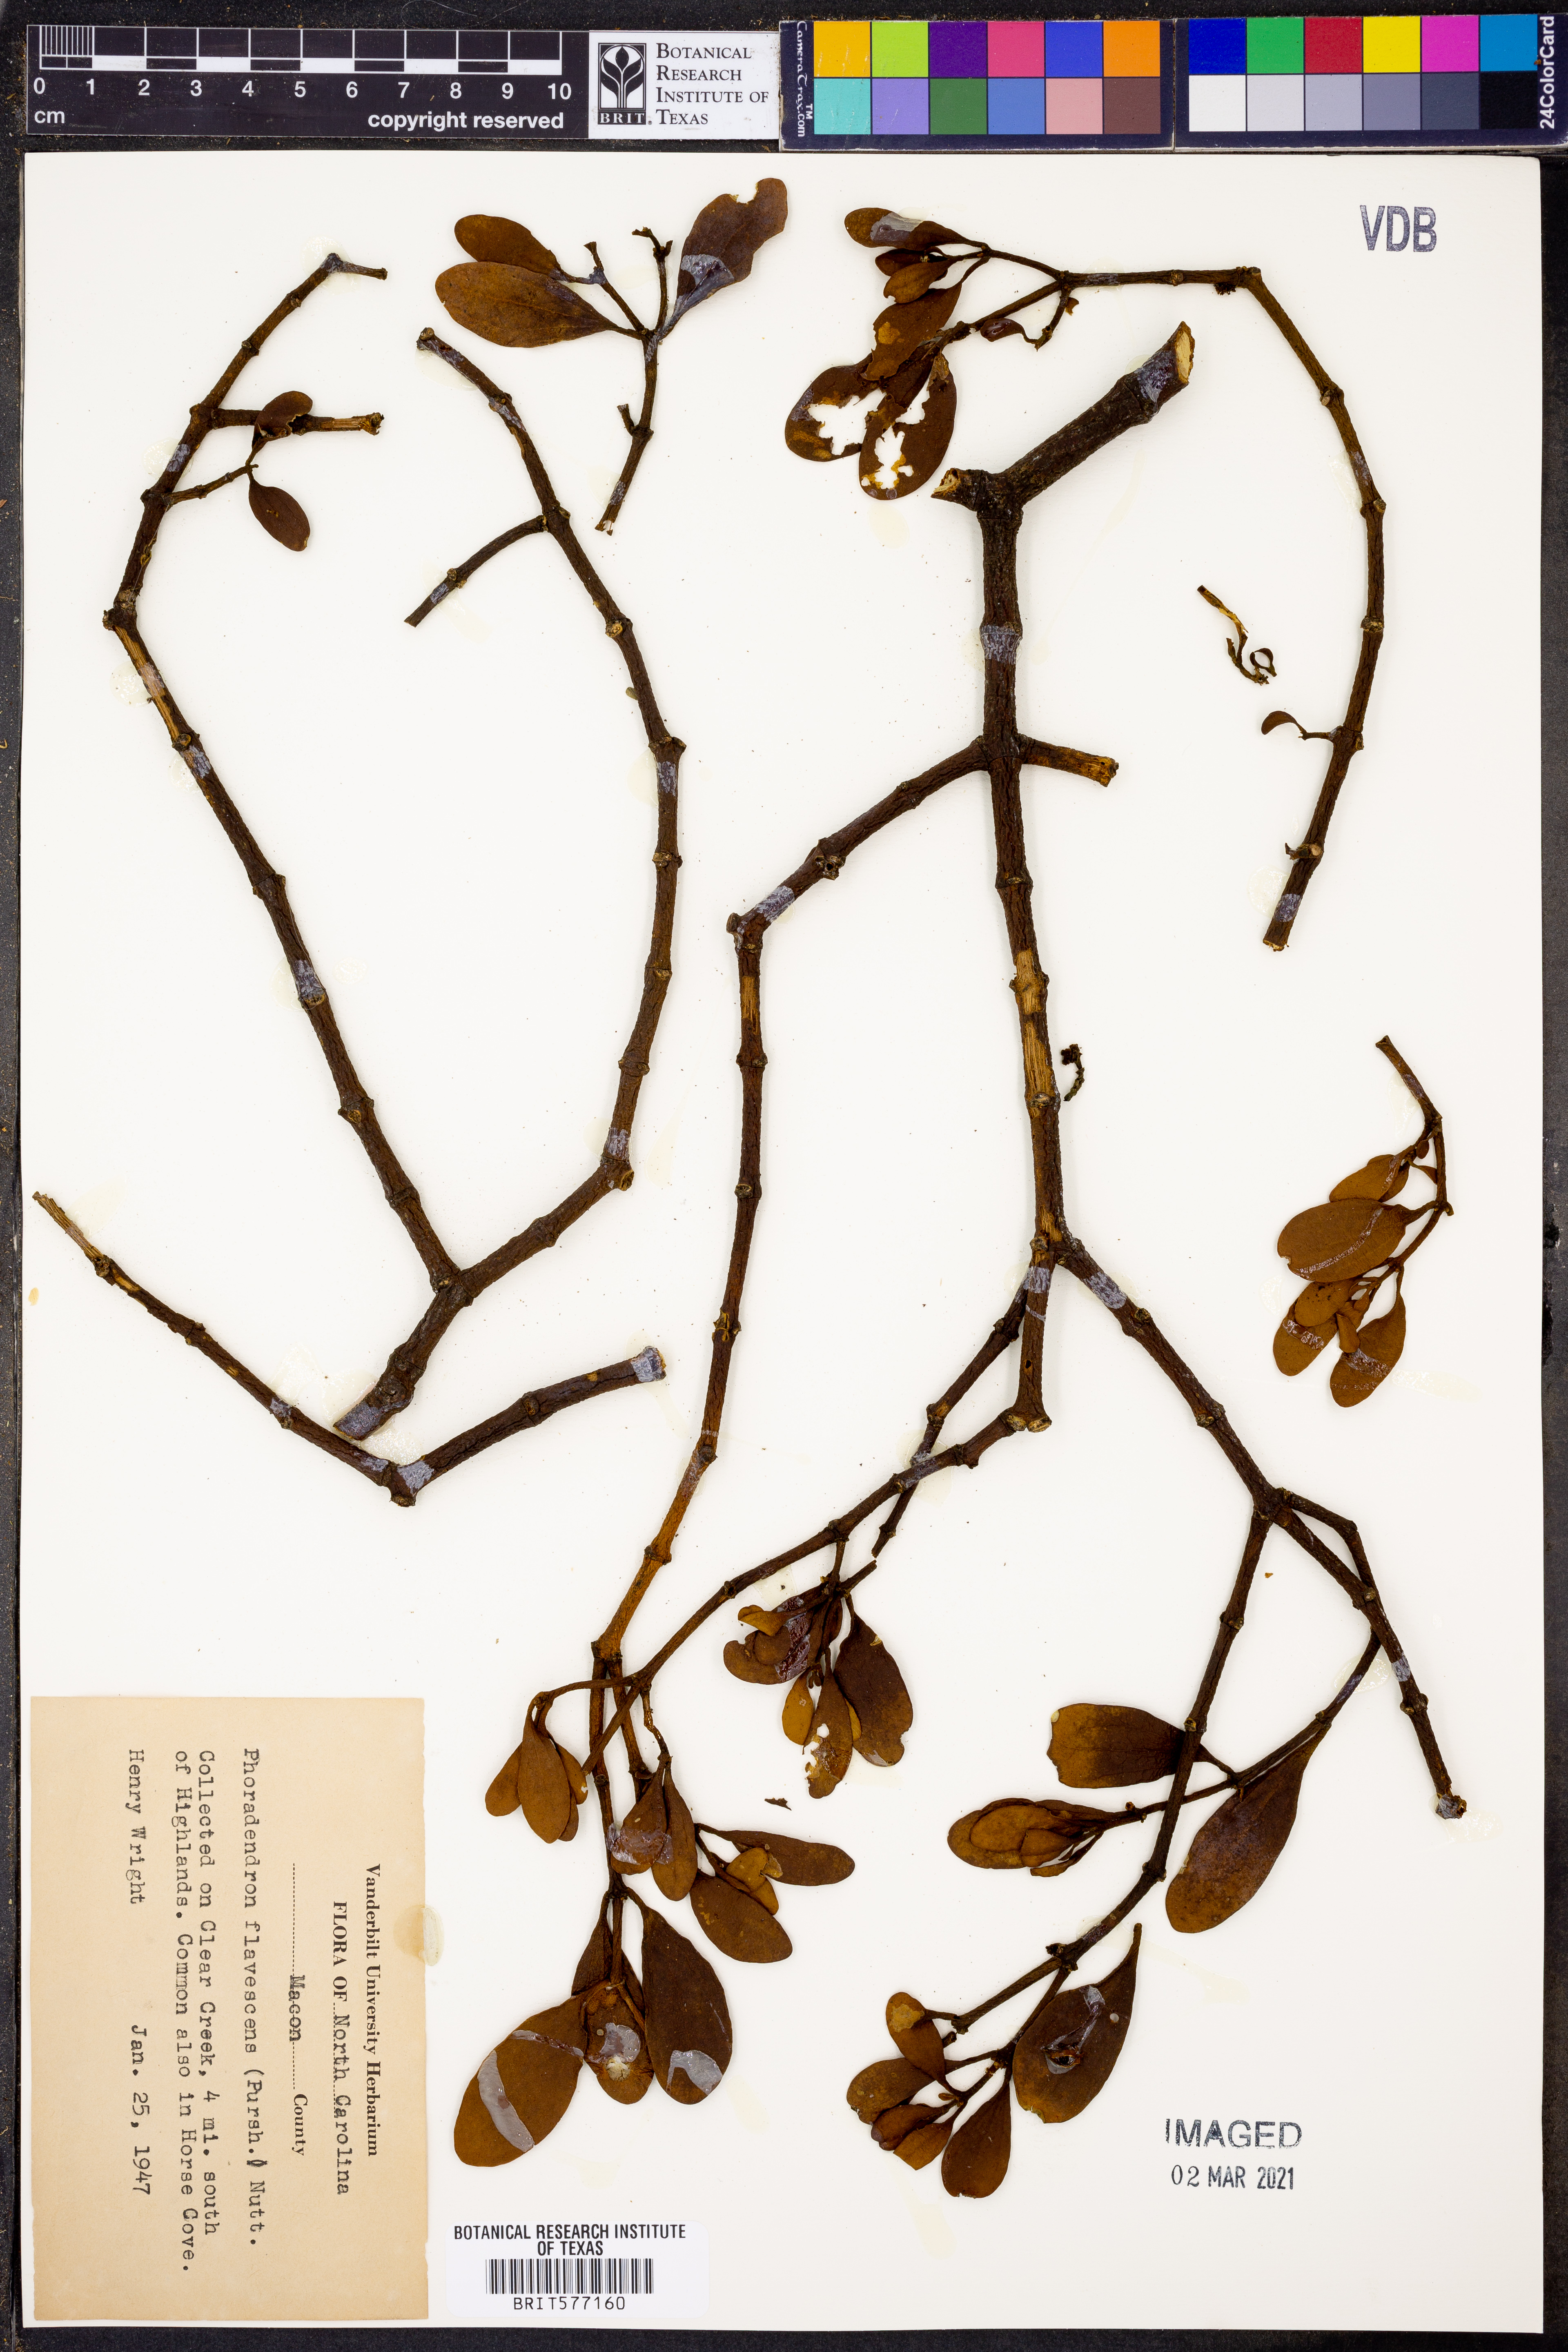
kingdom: Plantae
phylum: Tracheophyta
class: Magnoliopsida
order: Santalales
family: Viscaceae
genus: Phoradendron
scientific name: Phoradendron leucarpum
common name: Pacific mistletoe
